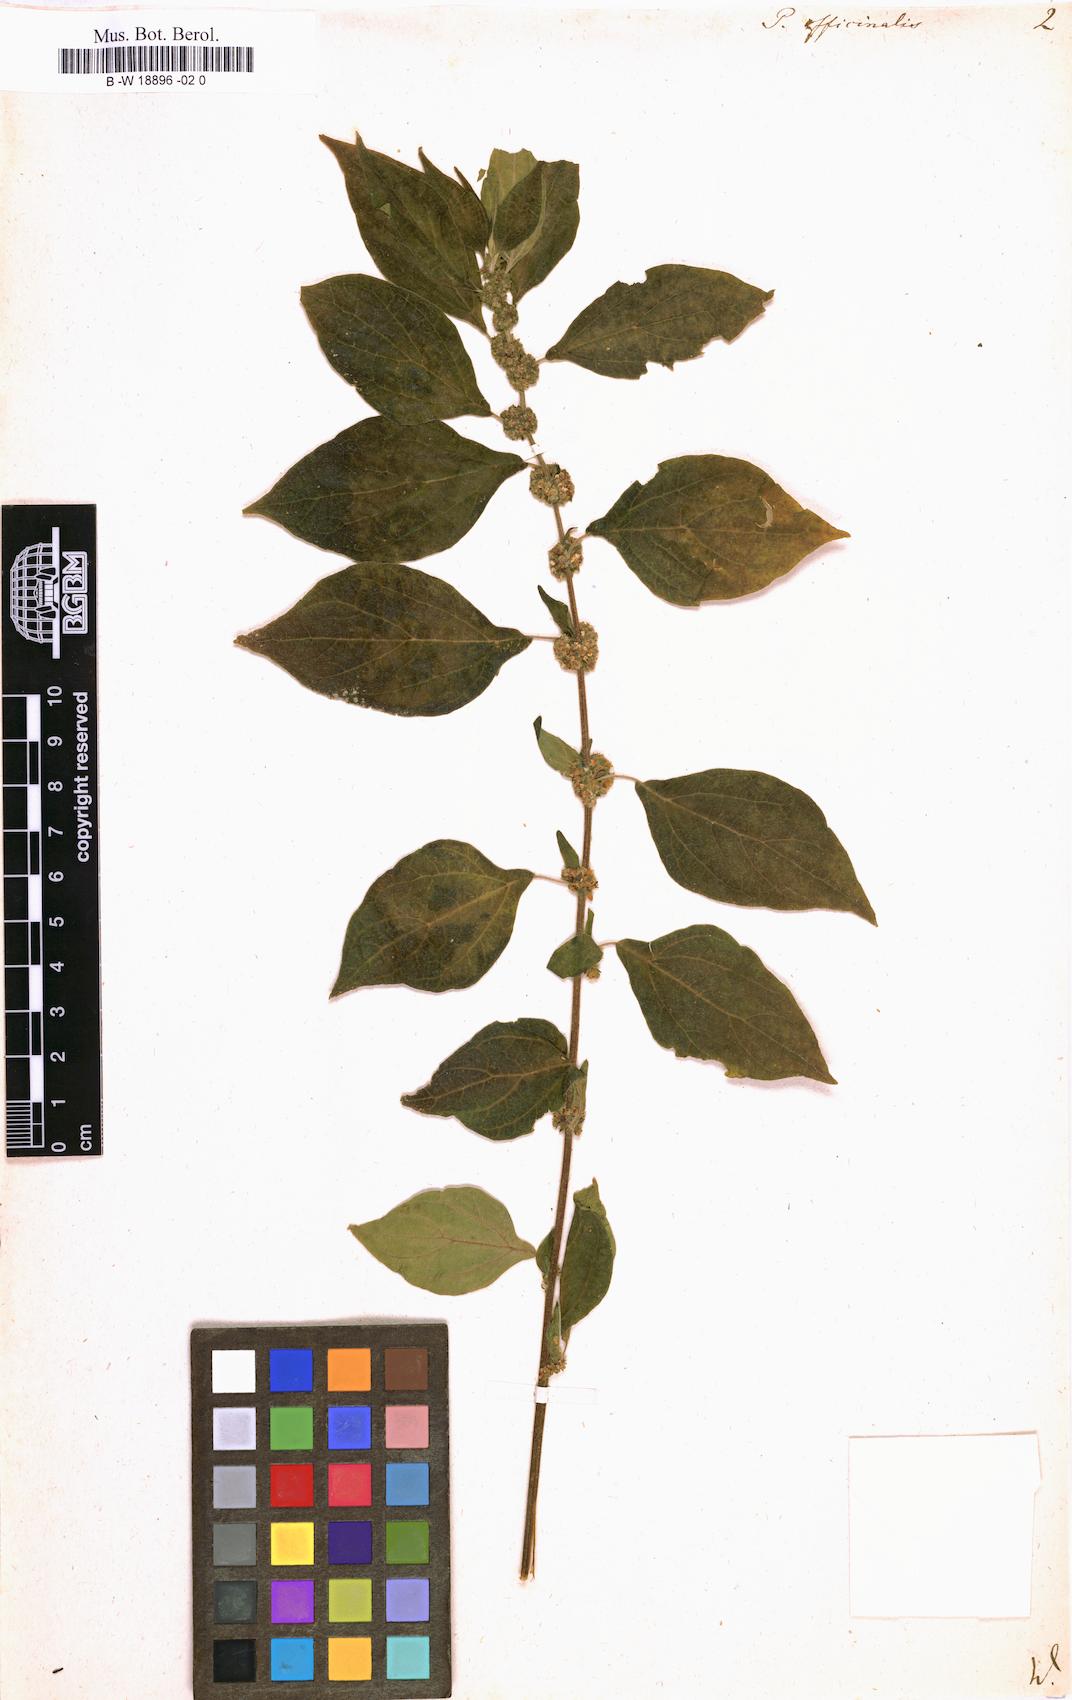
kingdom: Plantae
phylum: Tracheophyta
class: Magnoliopsida
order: Rosales
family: Urticaceae
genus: Parietaria
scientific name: Parietaria officinalis
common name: Eastern pellitory-of-the-wall
